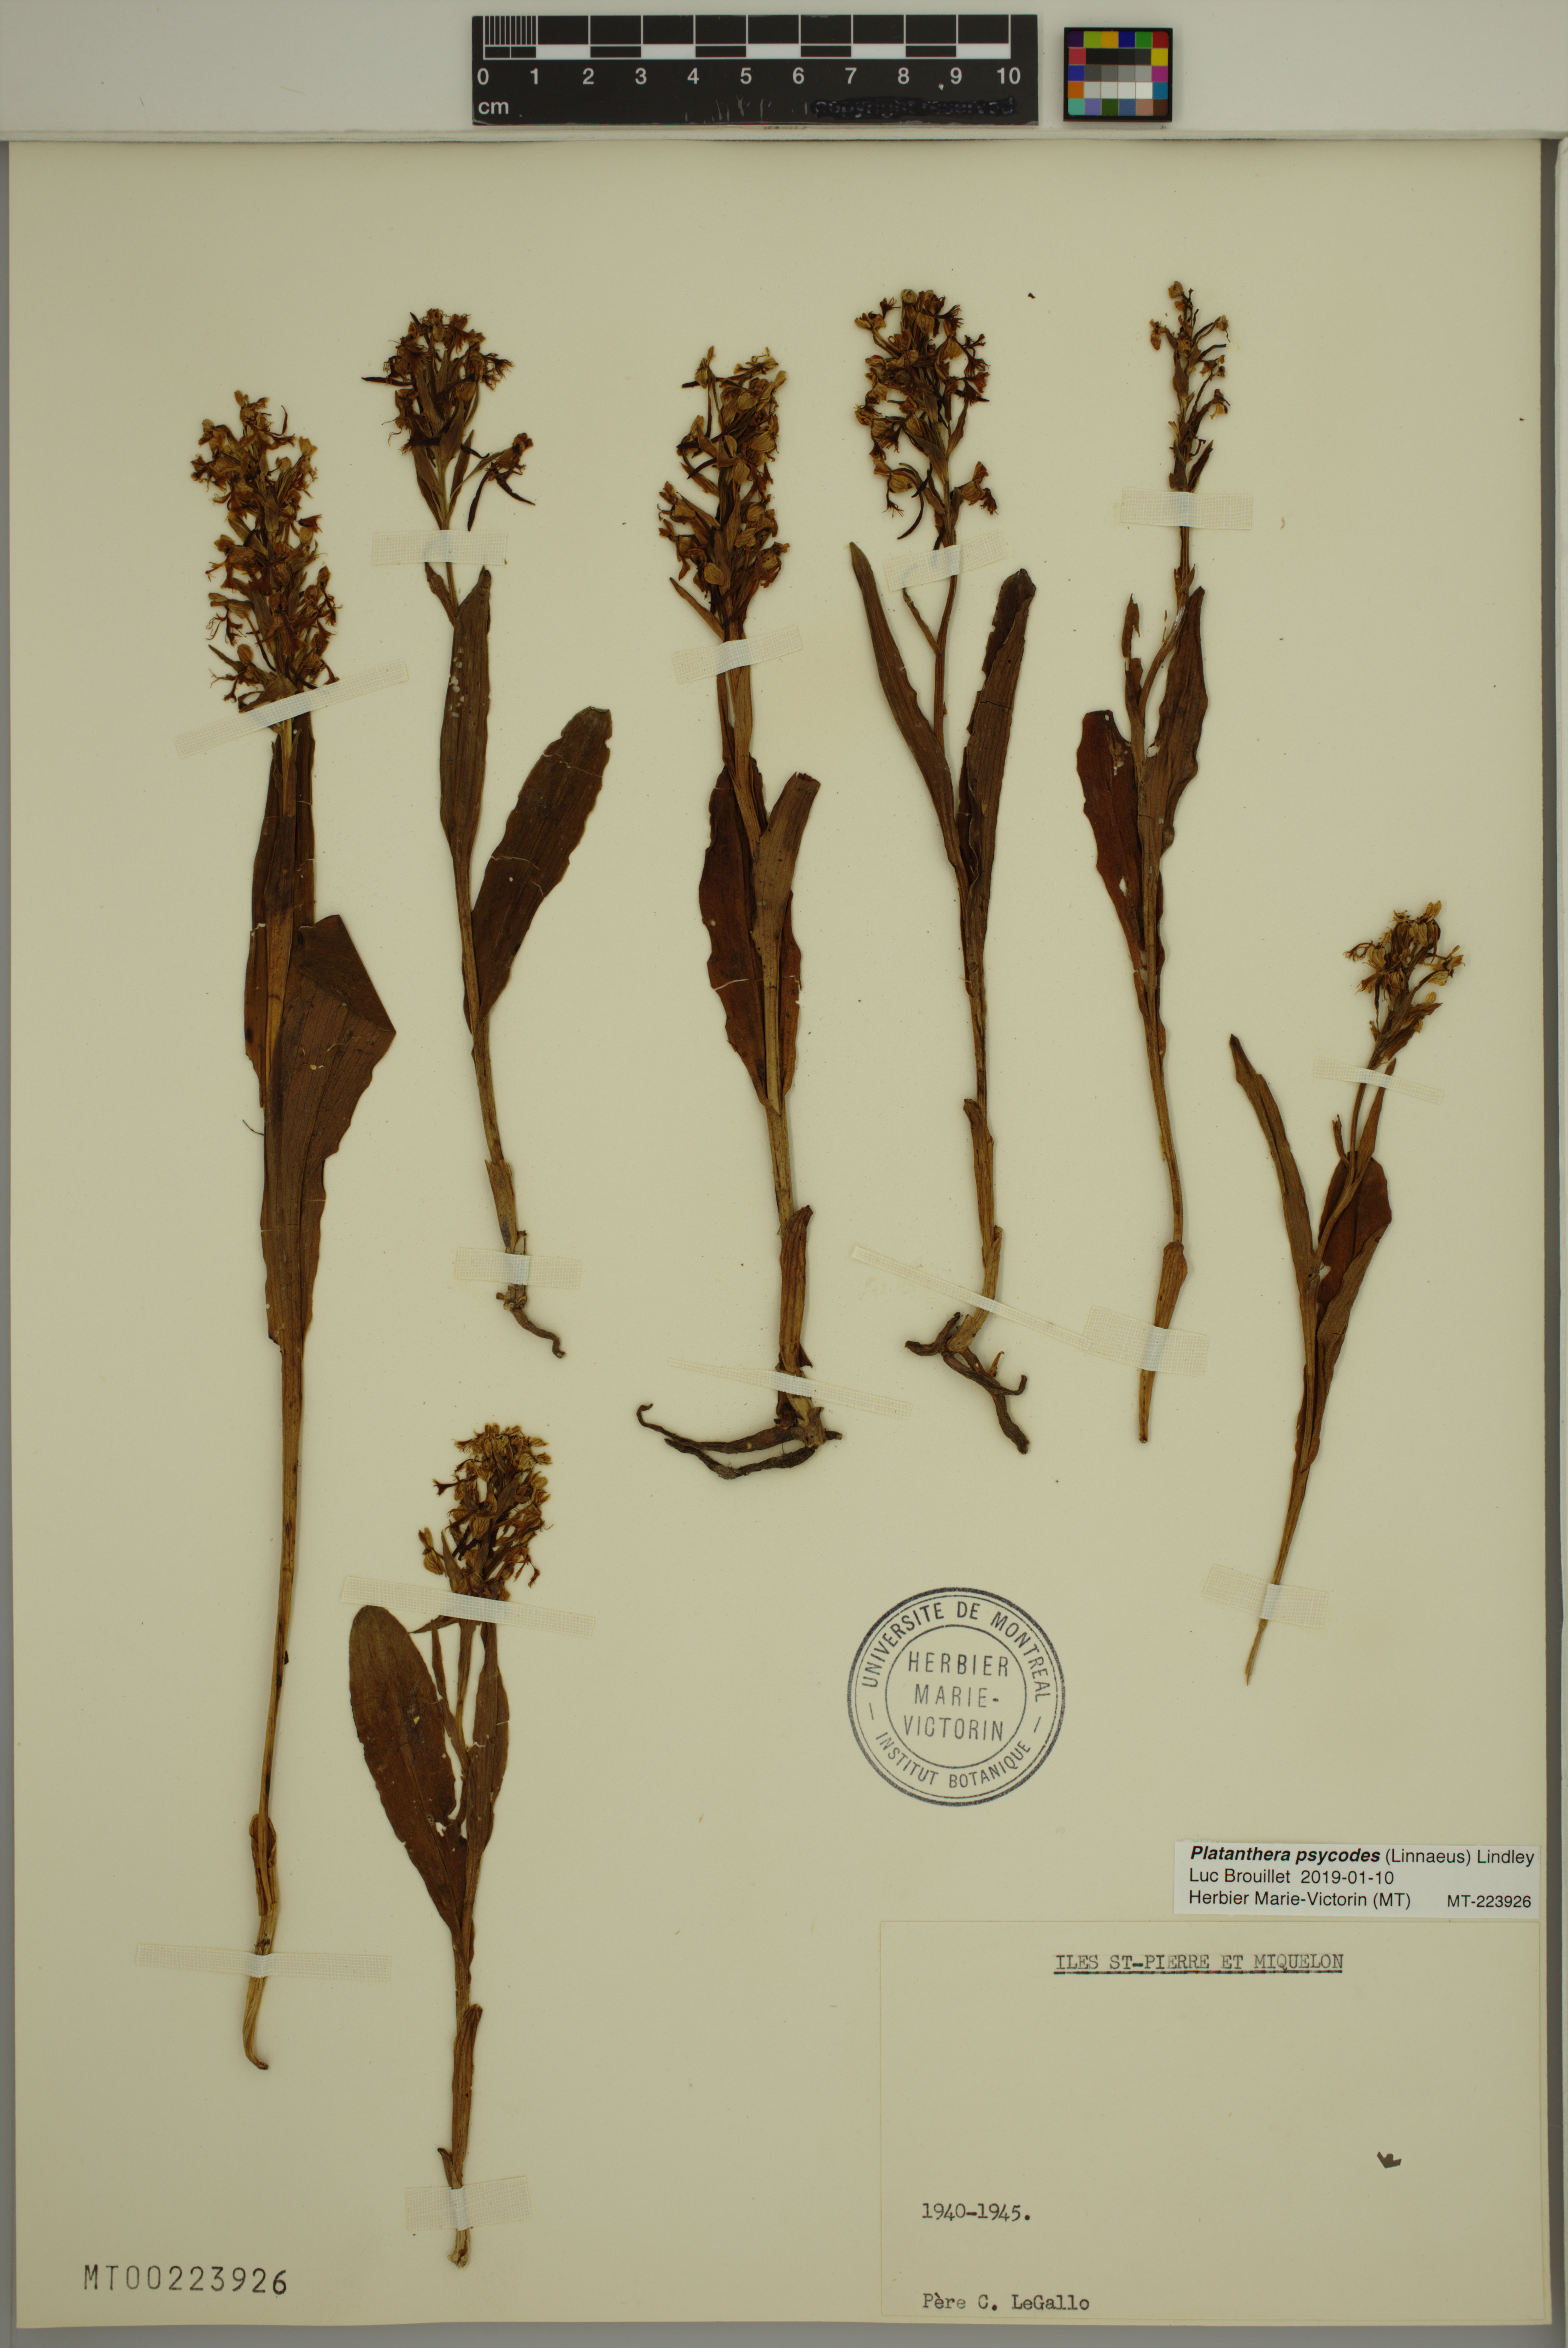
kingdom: Plantae
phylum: Tracheophyta
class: Liliopsida
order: Asparagales
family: Orchidaceae
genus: Platanthera
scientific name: Platanthera psycodes
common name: Lesser purple fringed orchid
